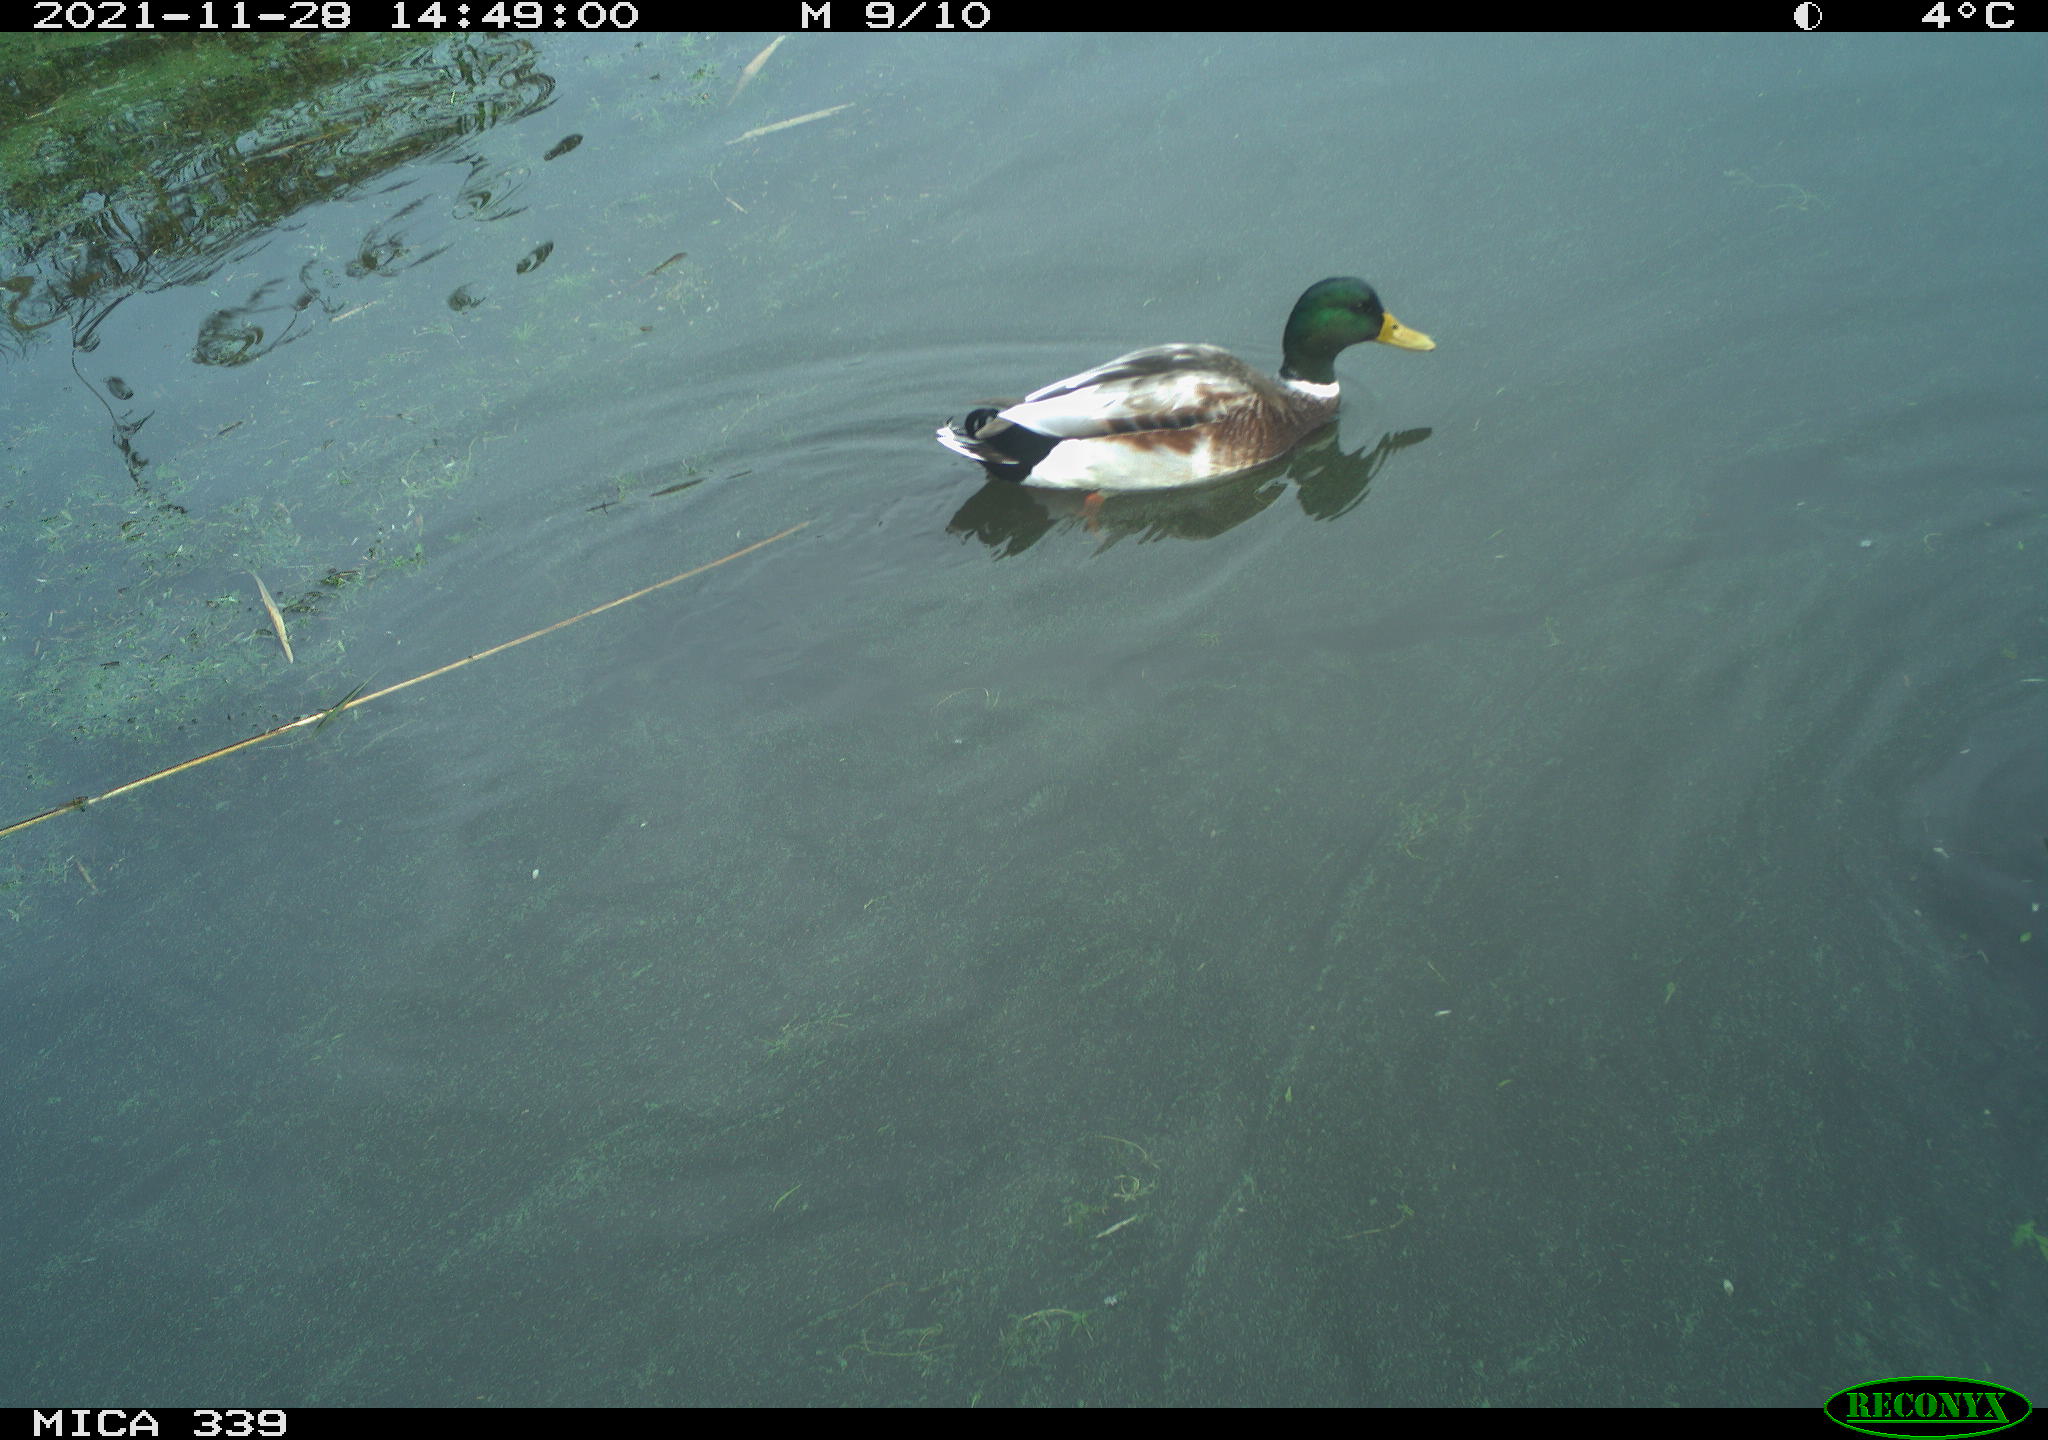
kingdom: Animalia
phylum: Chordata
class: Aves
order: Anseriformes
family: Anatidae
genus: Anas
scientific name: Anas platyrhynchos
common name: Mallard
